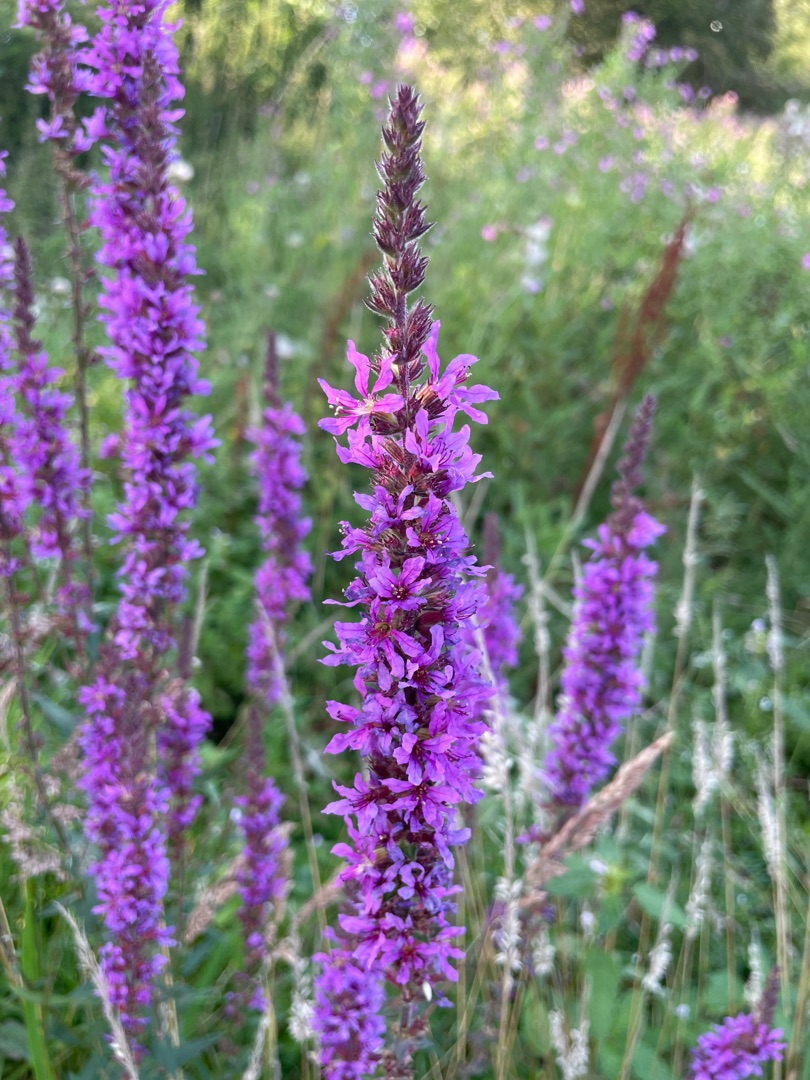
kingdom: Plantae
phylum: Tracheophyta
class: Magnoliopsida
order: Myrtales
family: Lythraceae
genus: Lythrum
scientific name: Lythrum salicaria
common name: Kattehale
